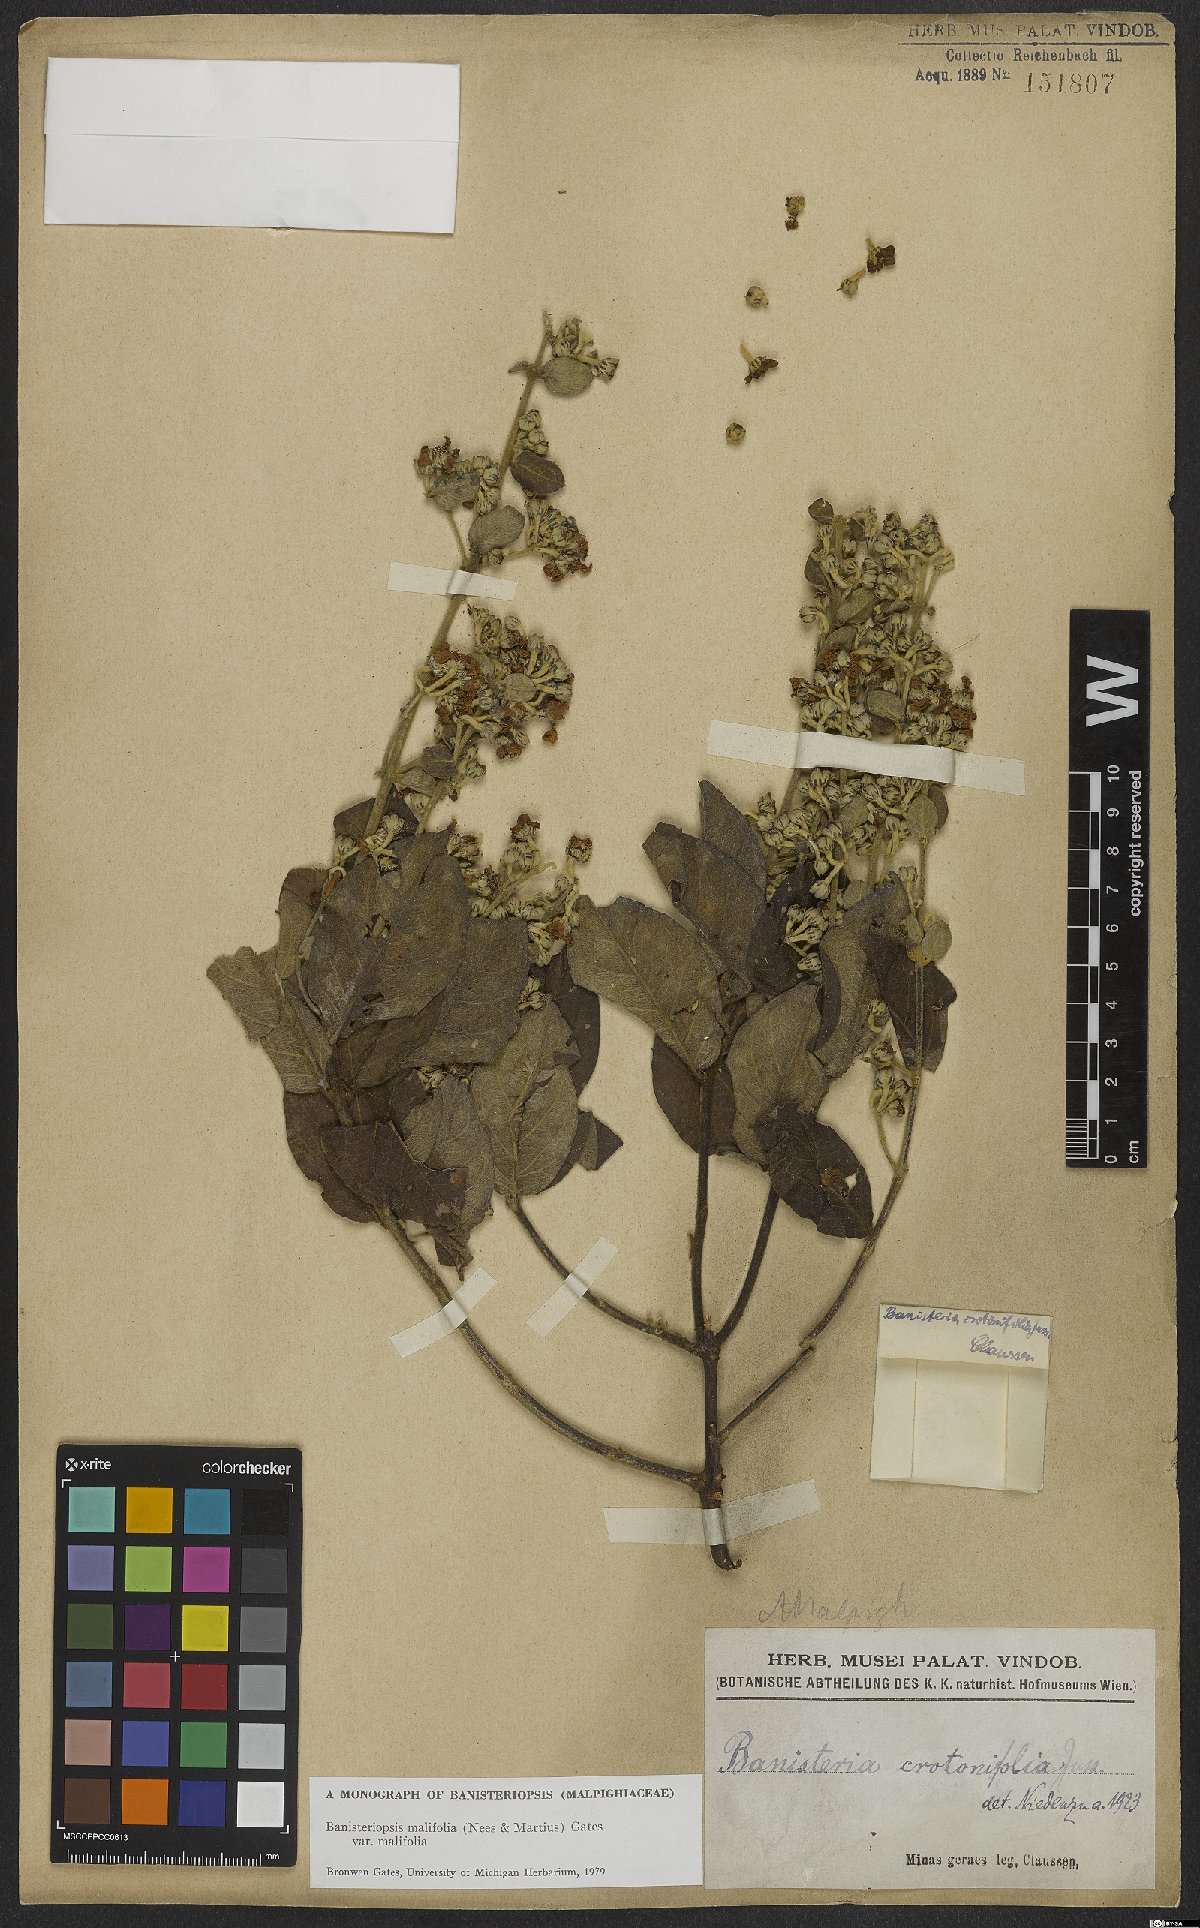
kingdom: Plantae
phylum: Tracheophyta
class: Magnoliopsida
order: Malpighiales
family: Malpighiaceae
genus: Banisteriopsis
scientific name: Banisteriopsis malifolia
